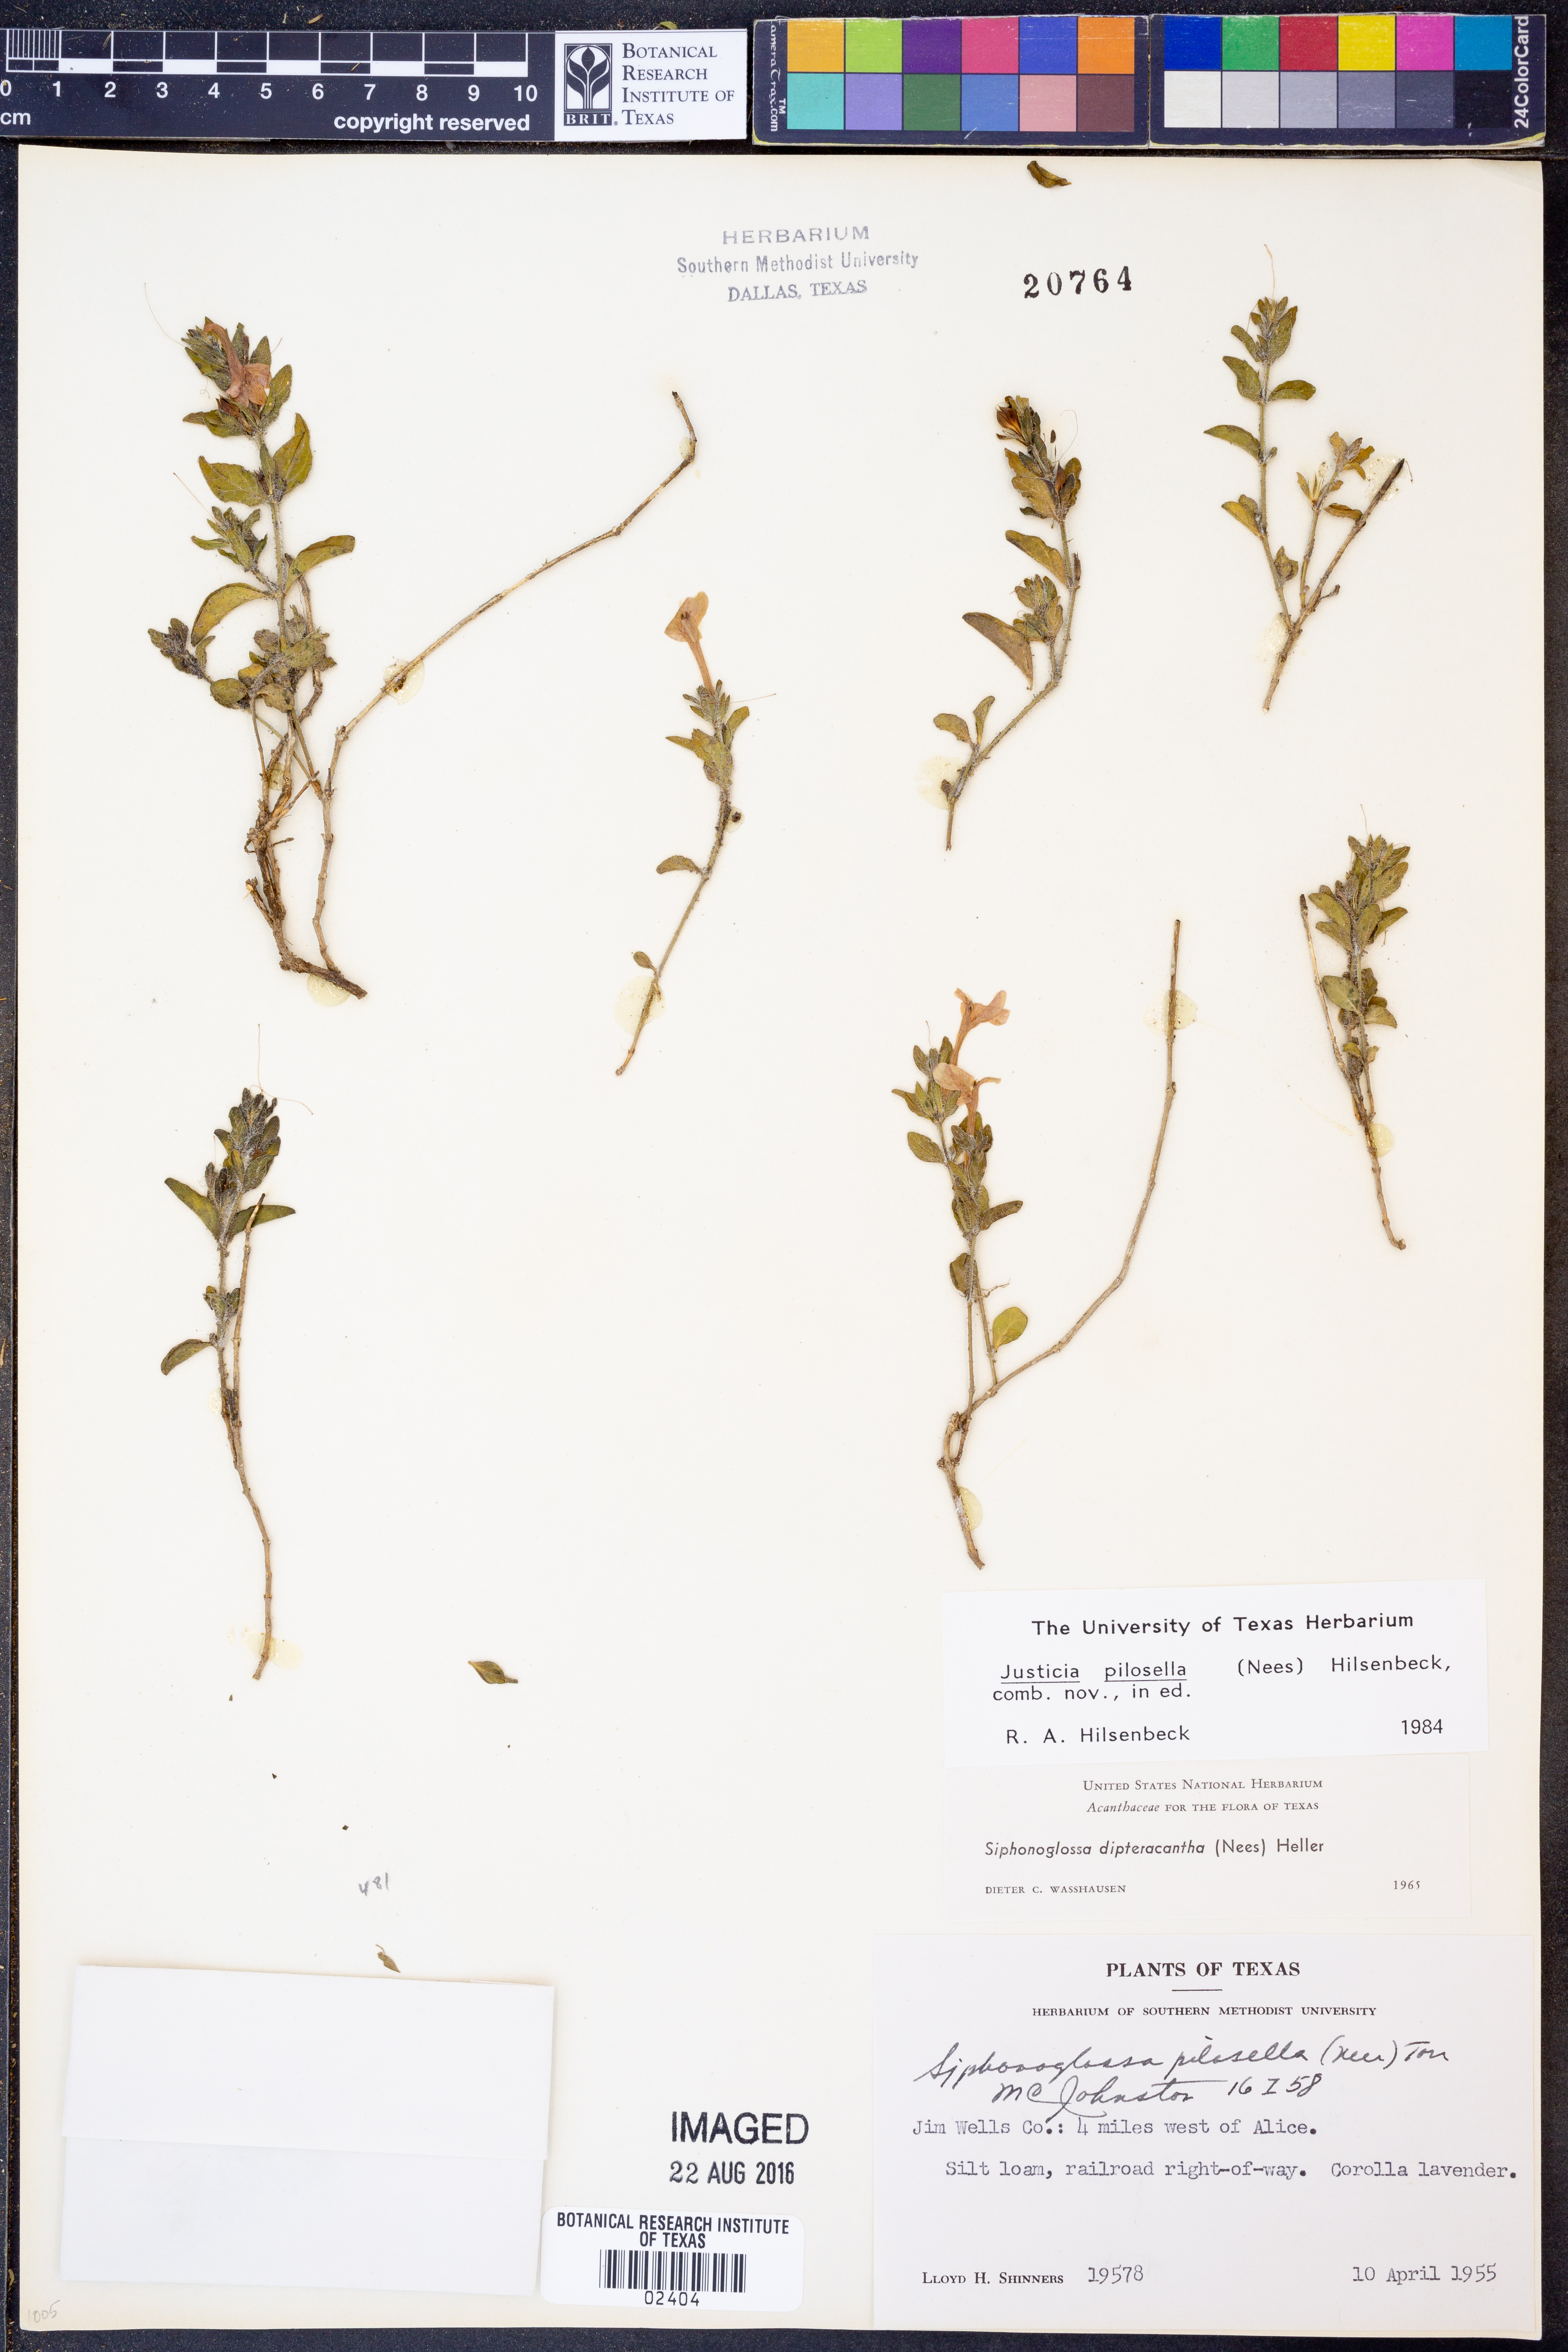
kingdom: Plantae
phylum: Tracheophyta
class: Magnoliopsida
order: Lamiales
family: Acanthaceae
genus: Justicia
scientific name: Justicia pilosella
